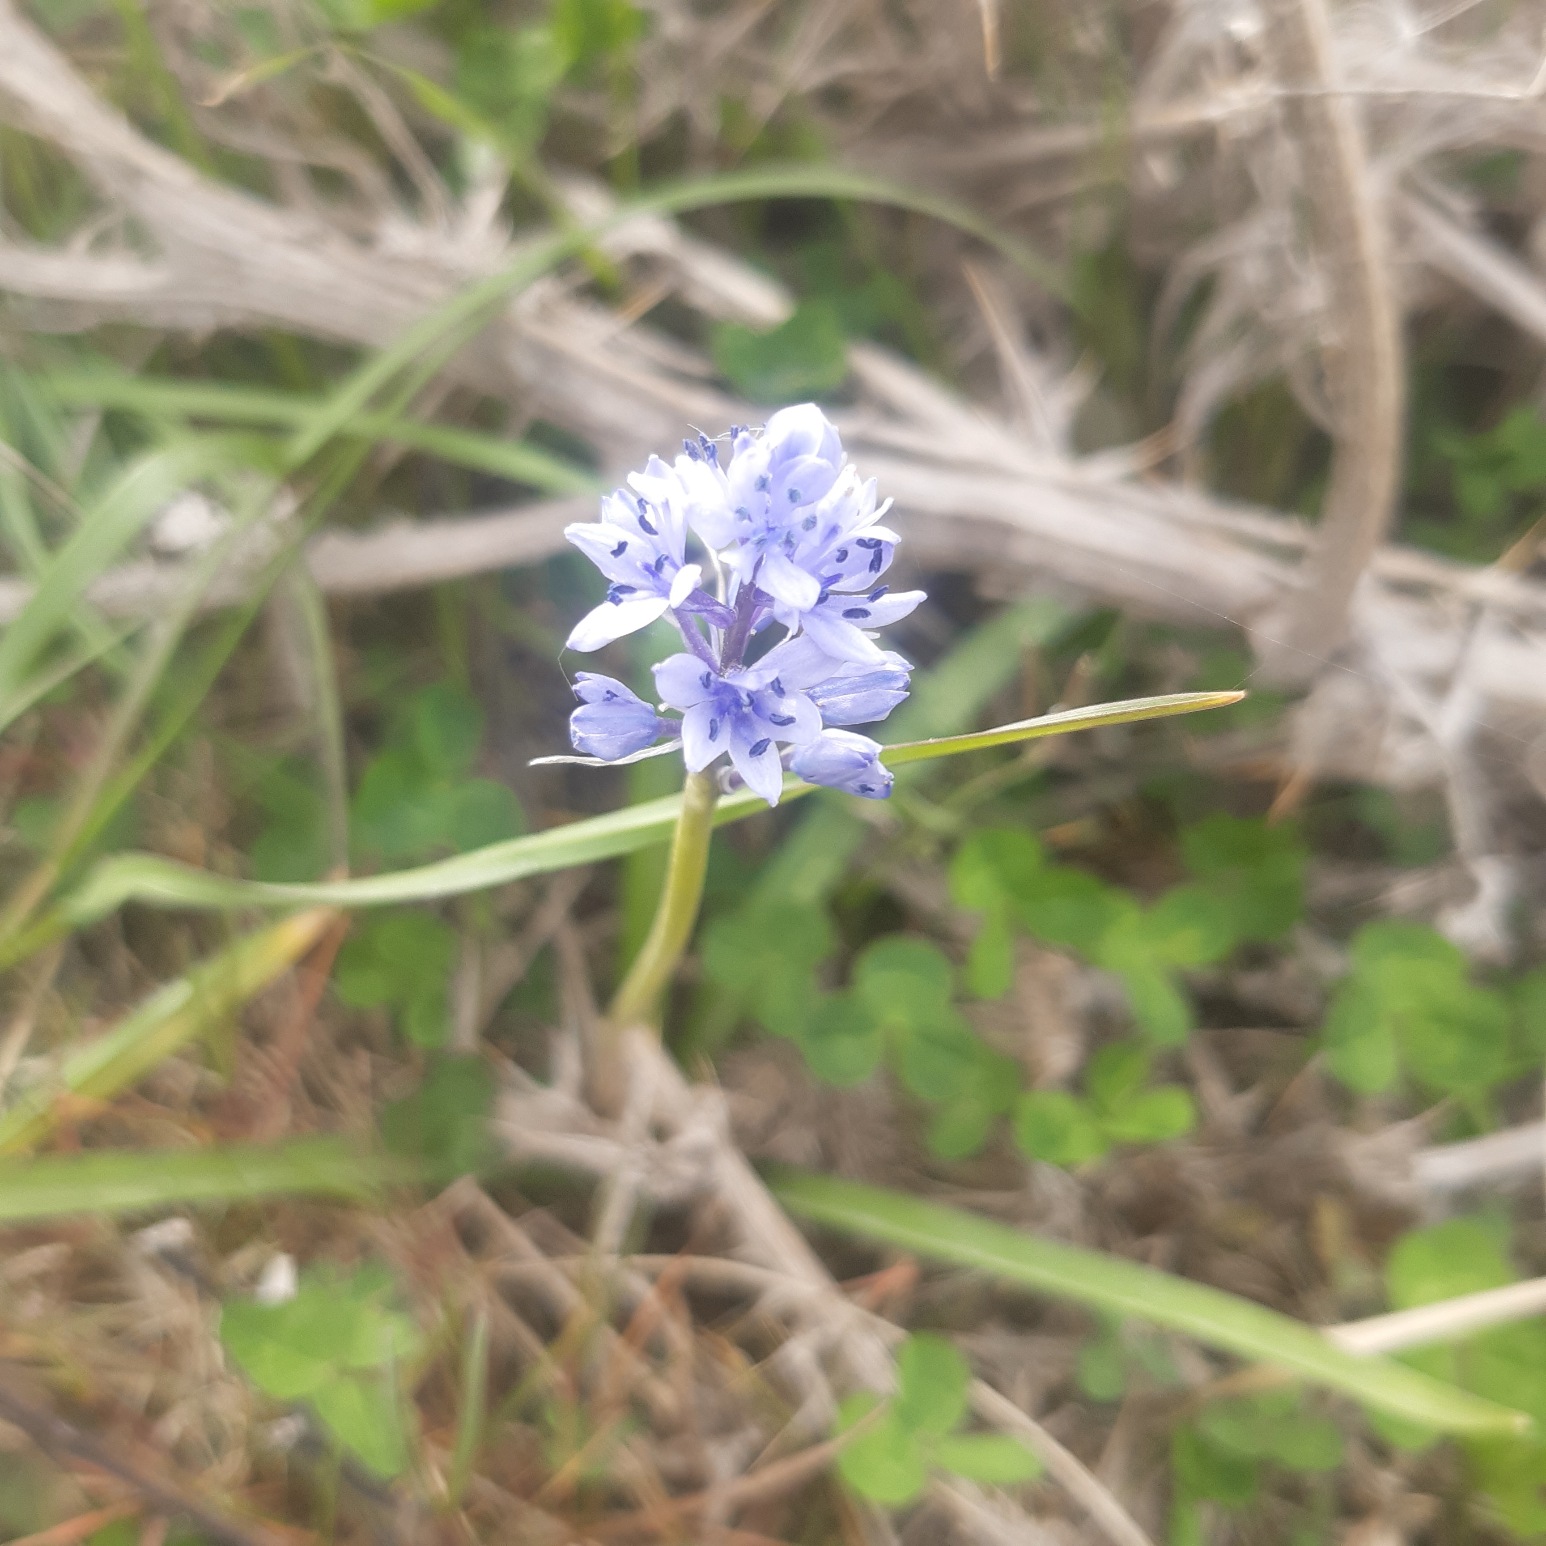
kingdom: Plantae
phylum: Tracheophyta
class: Liliopsida
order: Asparagales
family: Asparagaceae
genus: Hyacinthoides
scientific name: Hyacinthoides italica
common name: Italiensk skilla
